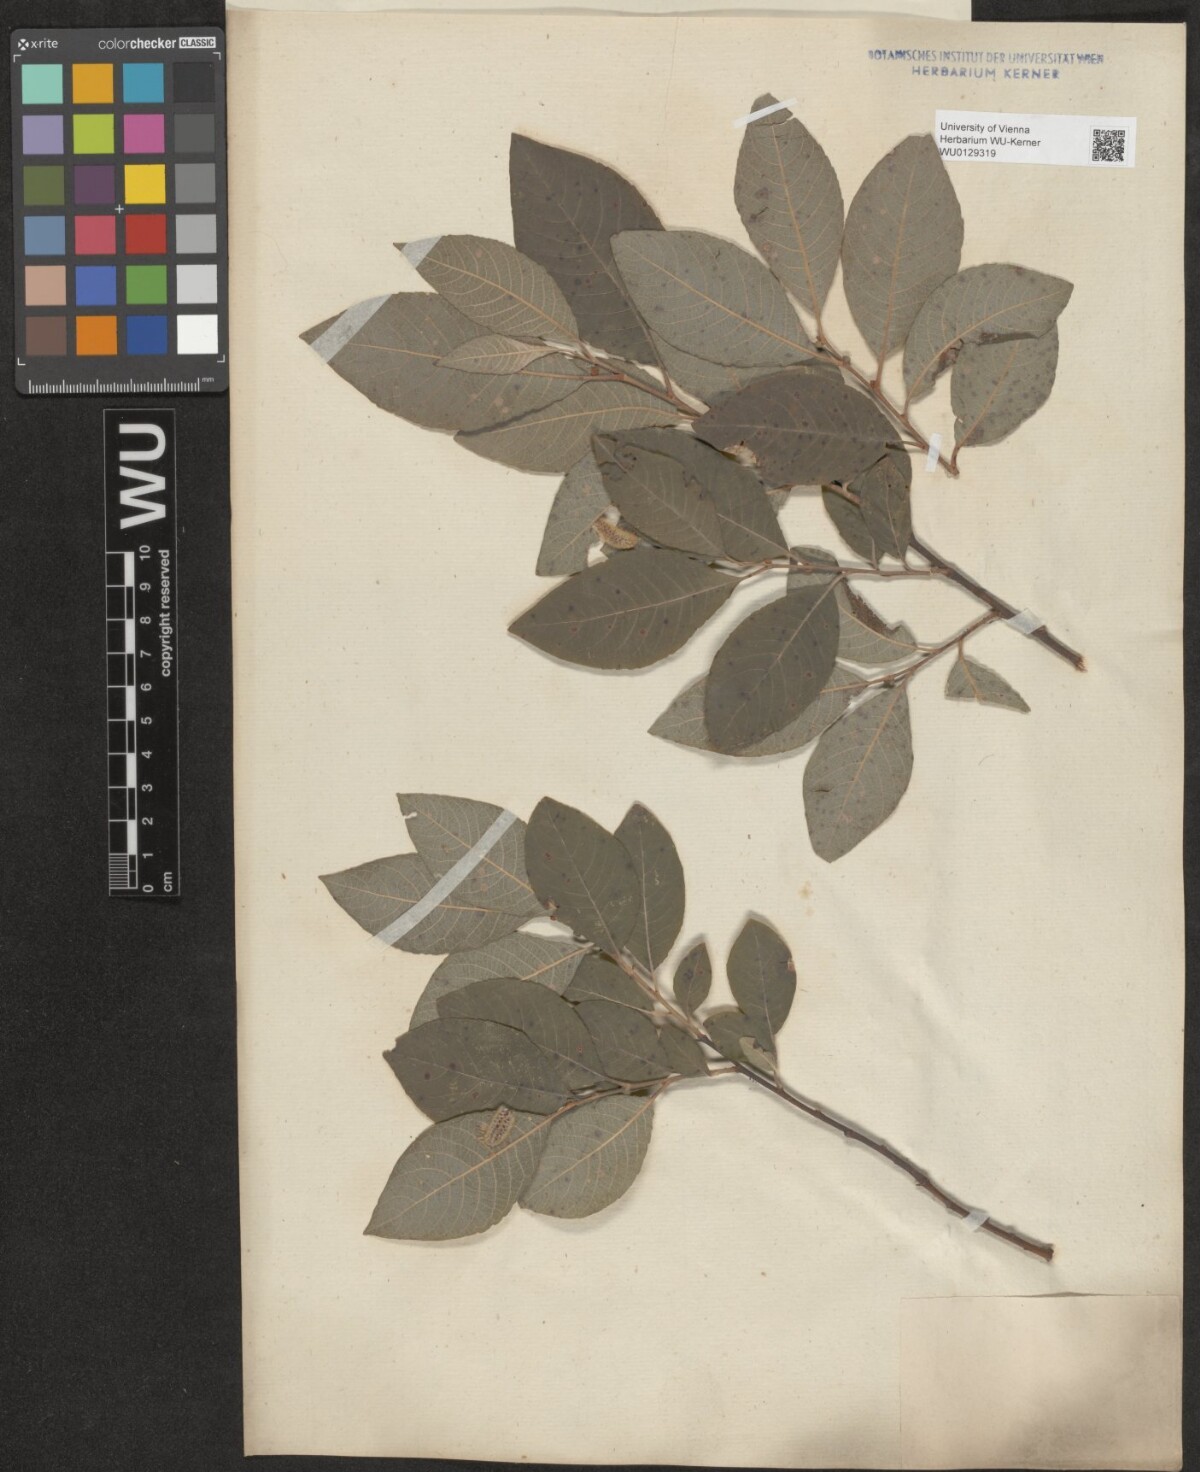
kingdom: Plantae
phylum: Tracheophyta
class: Magnoliopsida
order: Malpighiales
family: Salicaceae
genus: Salix
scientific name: Salix appendiculata
